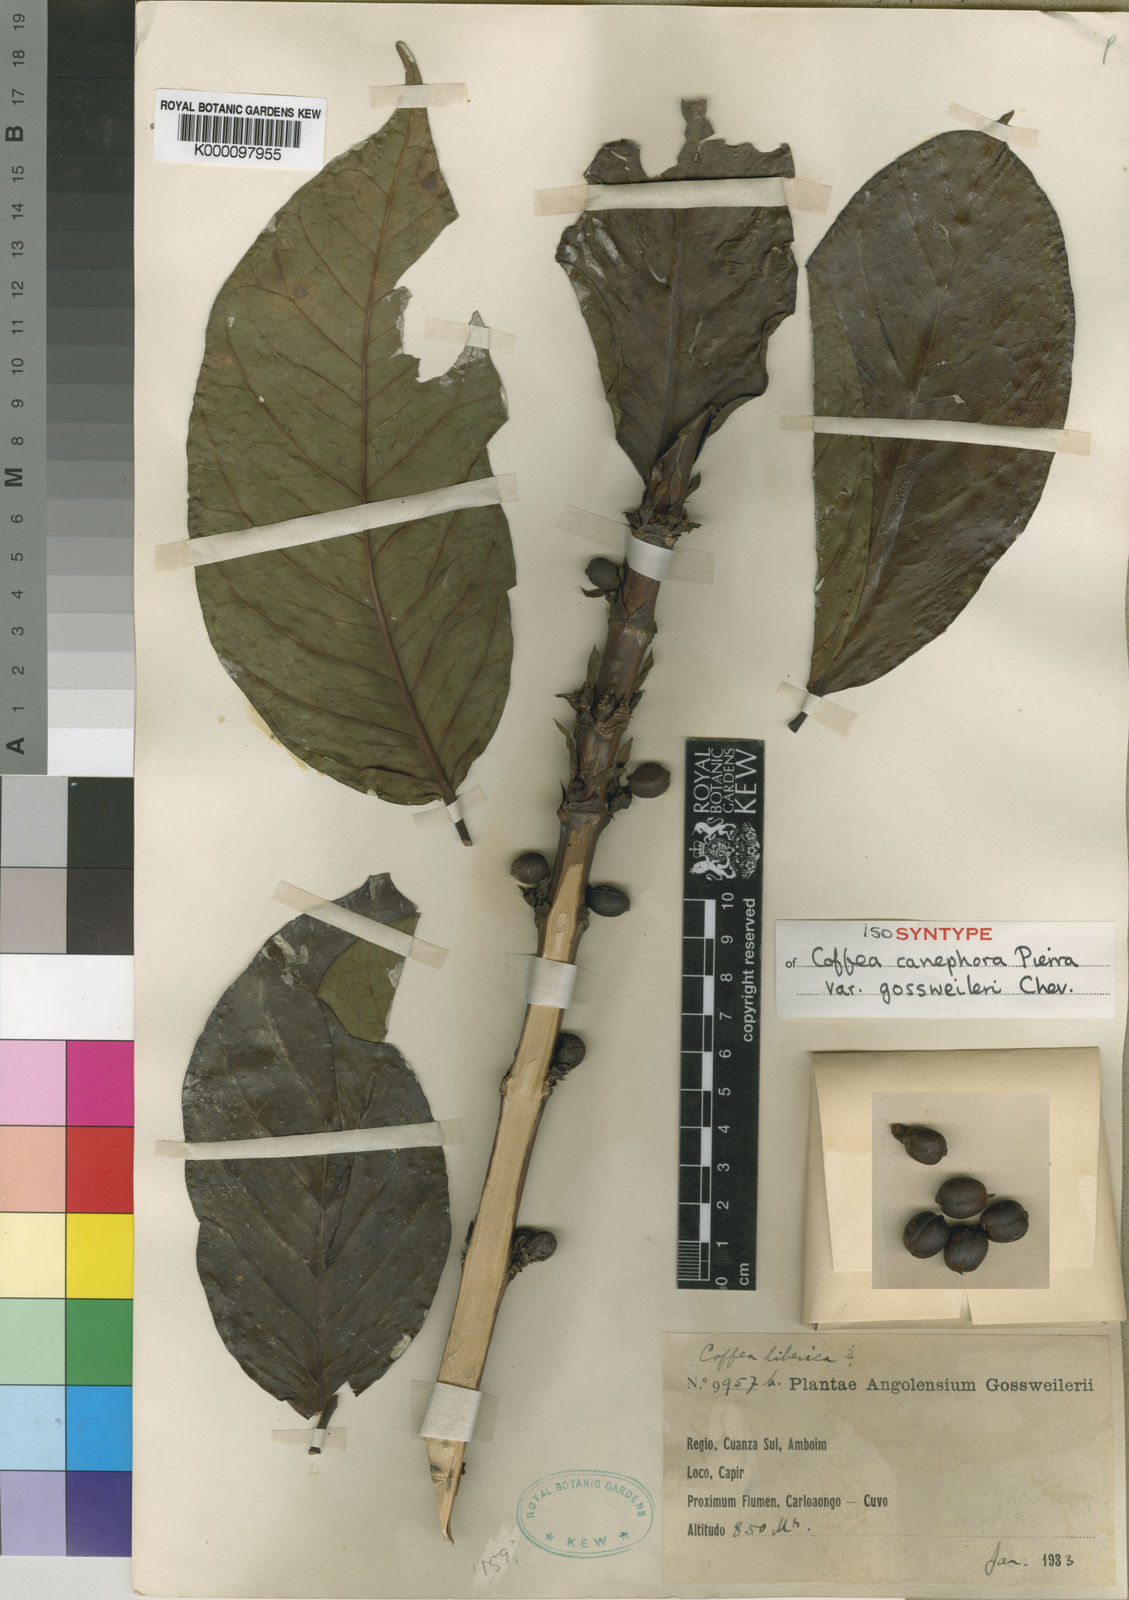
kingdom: Plantae
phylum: Tracheophyta
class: Magnoliopsida
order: Gentianales
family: Rubiaceae
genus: Coffea
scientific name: Coffea canephora
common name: Robusta coffee
